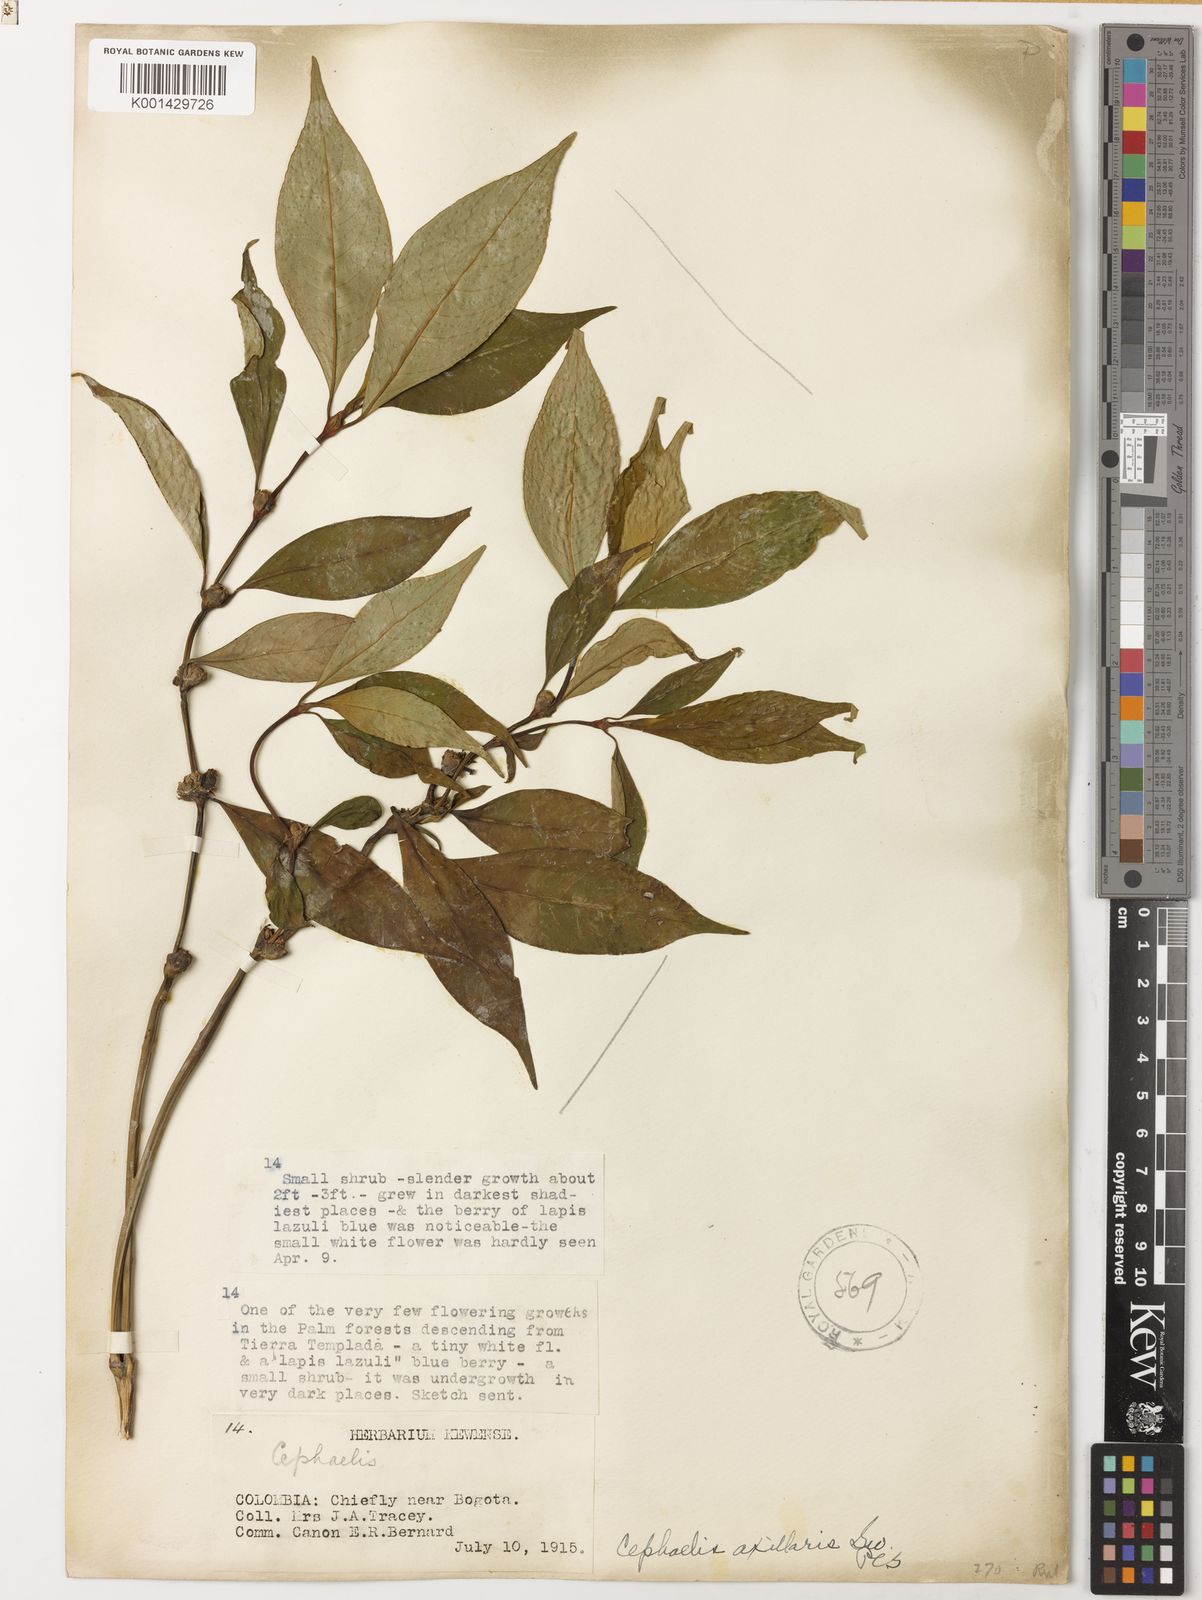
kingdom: Plantae
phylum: Tracheophyta
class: Magnoliopsida
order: Gentianales
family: Rubiaceae
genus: Palicourea
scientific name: Palicourea axillaris
